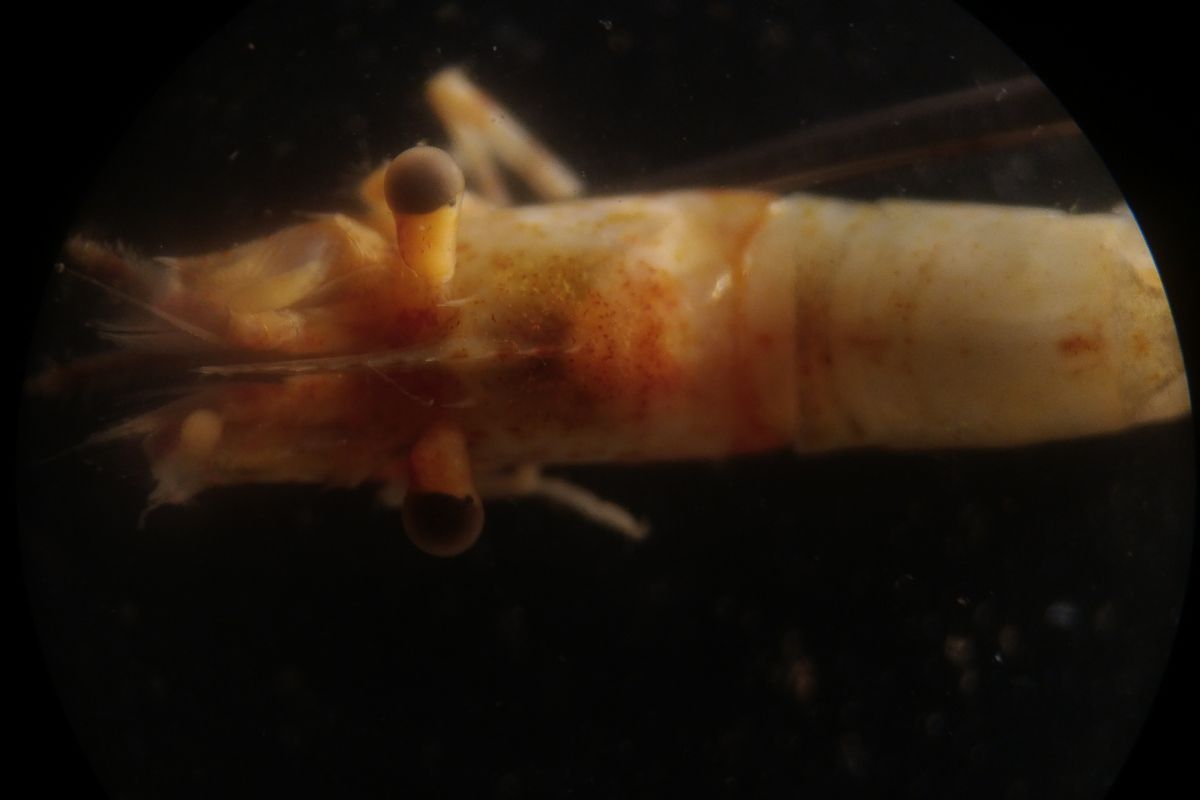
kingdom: Animalia
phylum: Arthropoda
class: Malacostraca
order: Decapoda
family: Thoridae
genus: Spirontocaris
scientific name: Spirontocaris phippsii
